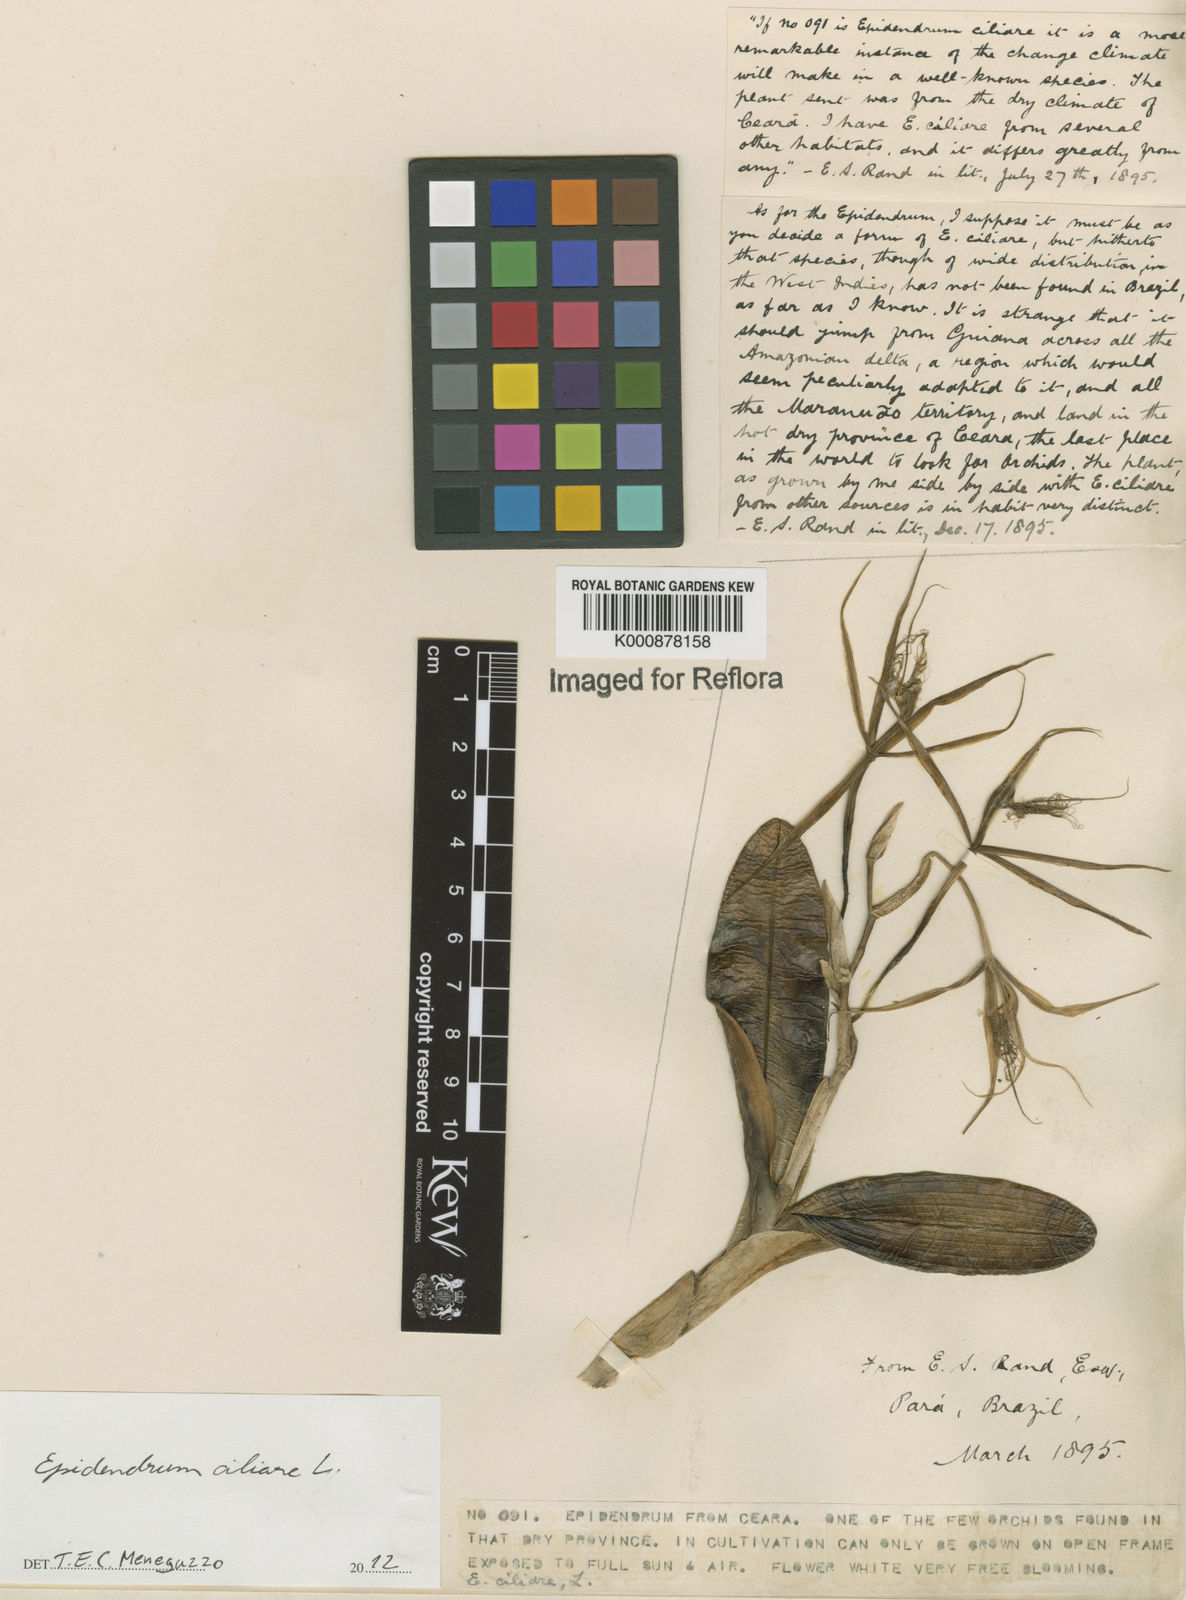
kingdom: Plantae
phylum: Tracheophyta
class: Liliopsida
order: Asparagales
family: Orchidaceae
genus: Epidendrum
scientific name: Epidendrum ciliare
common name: Eyelash orchid
